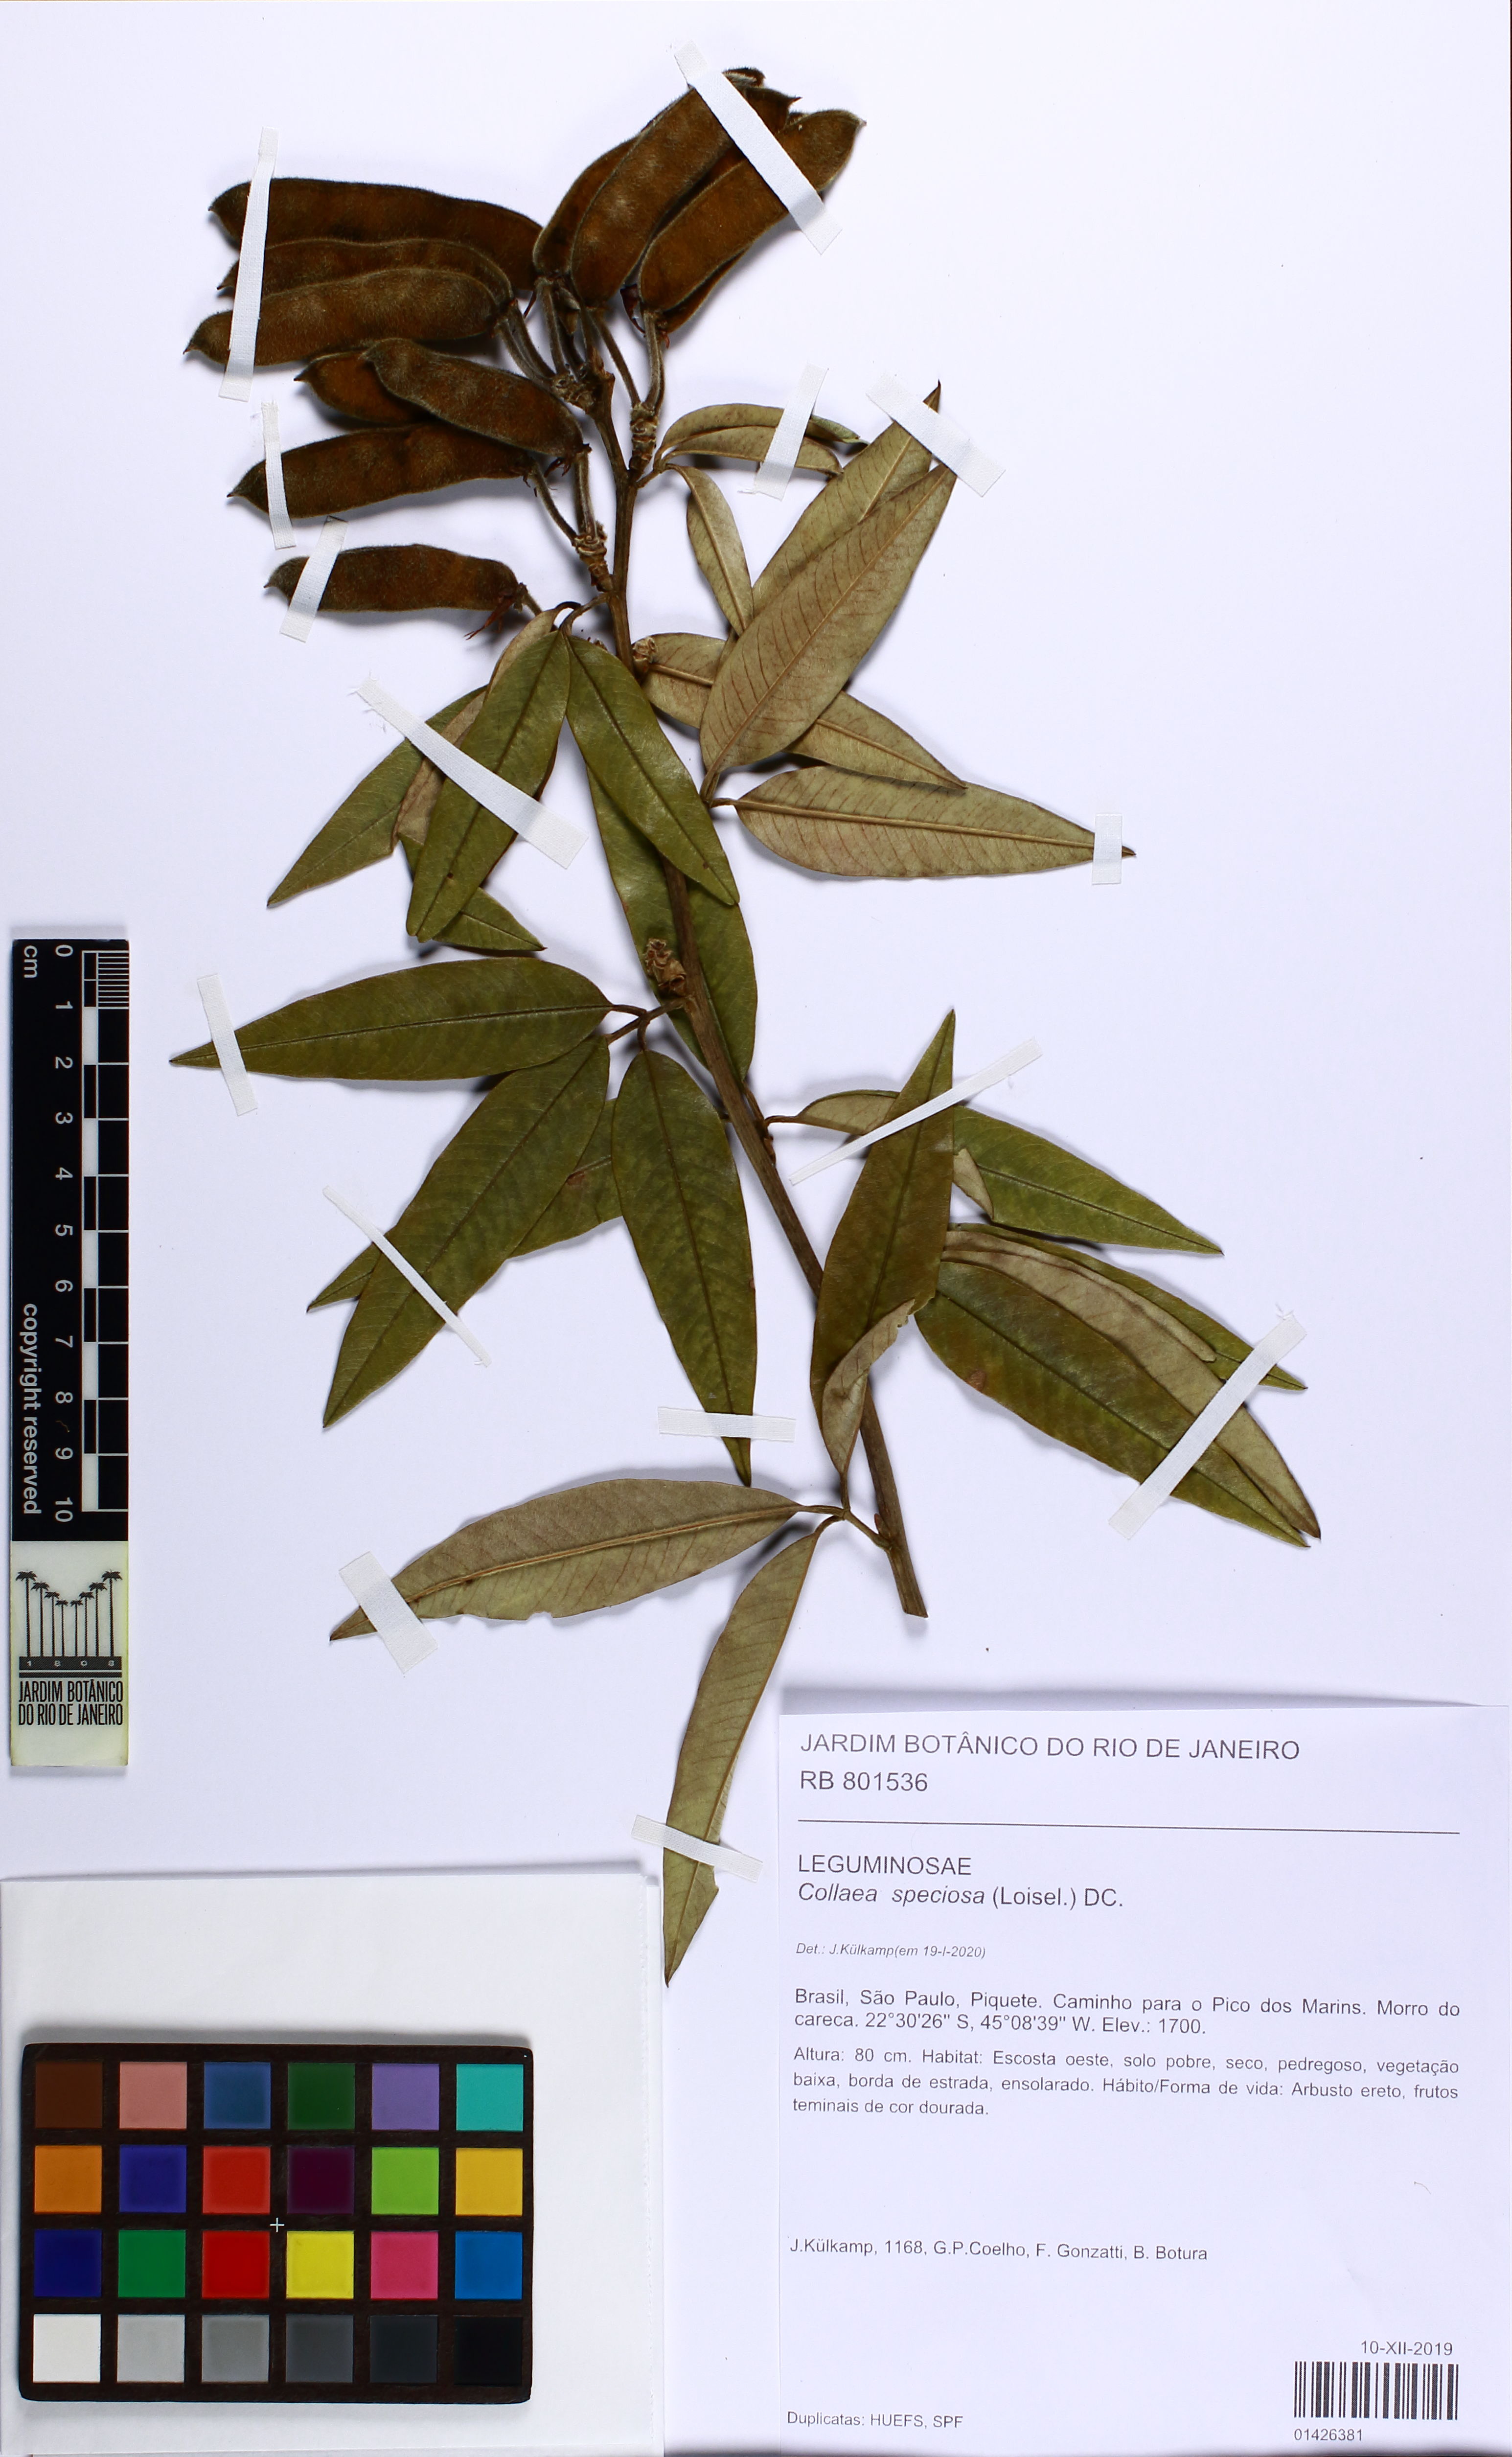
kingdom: Plantae
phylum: Tracheophyta
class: Magnoliopsida
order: Fabales
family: Fabaceae
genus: Collaea
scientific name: Collaea speciosa
